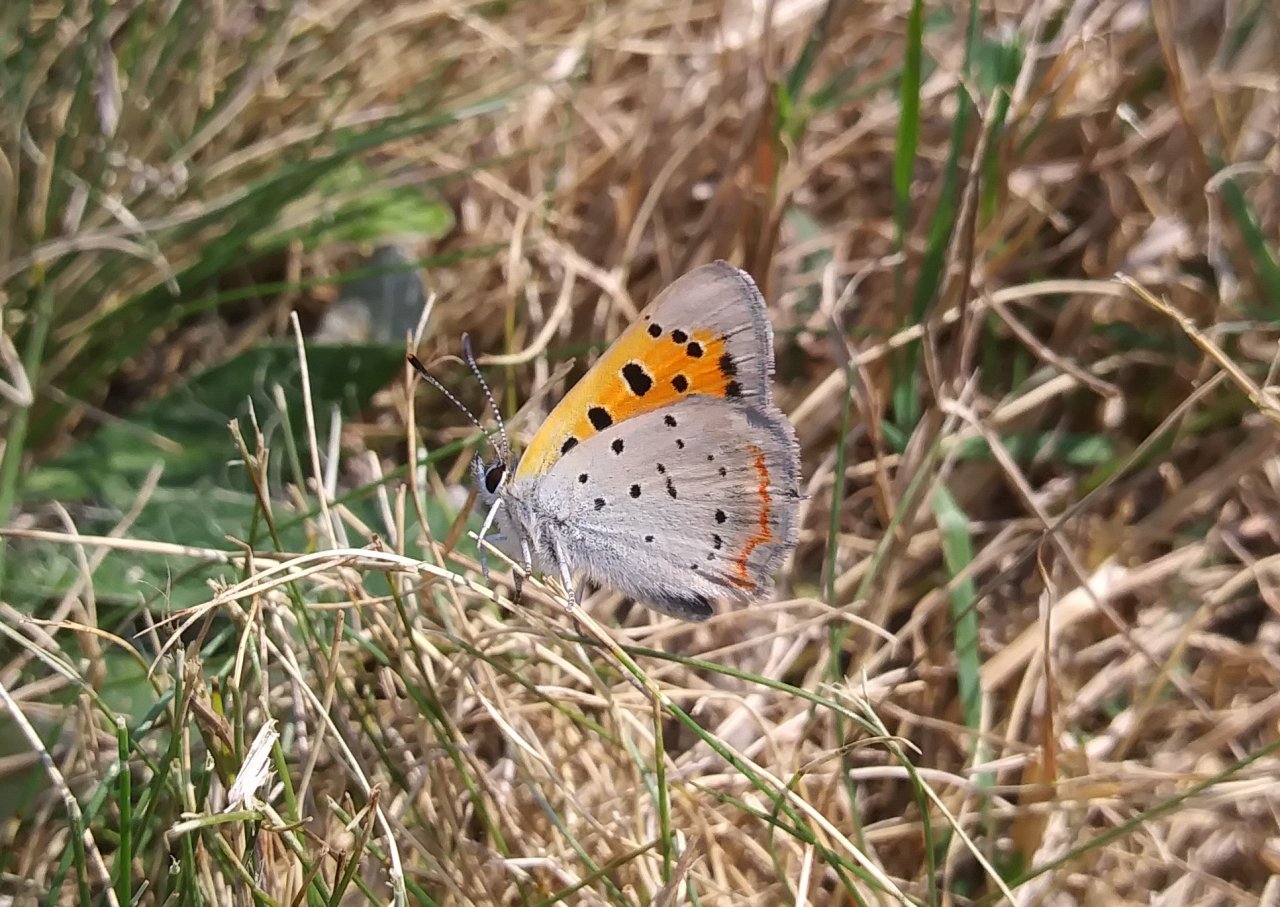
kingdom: Animalia
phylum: Arthropoda
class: Insecta
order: Lepidoptera
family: Lycaenidae
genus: Lycaena
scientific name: Lycaena phlaeas
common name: American Copper
